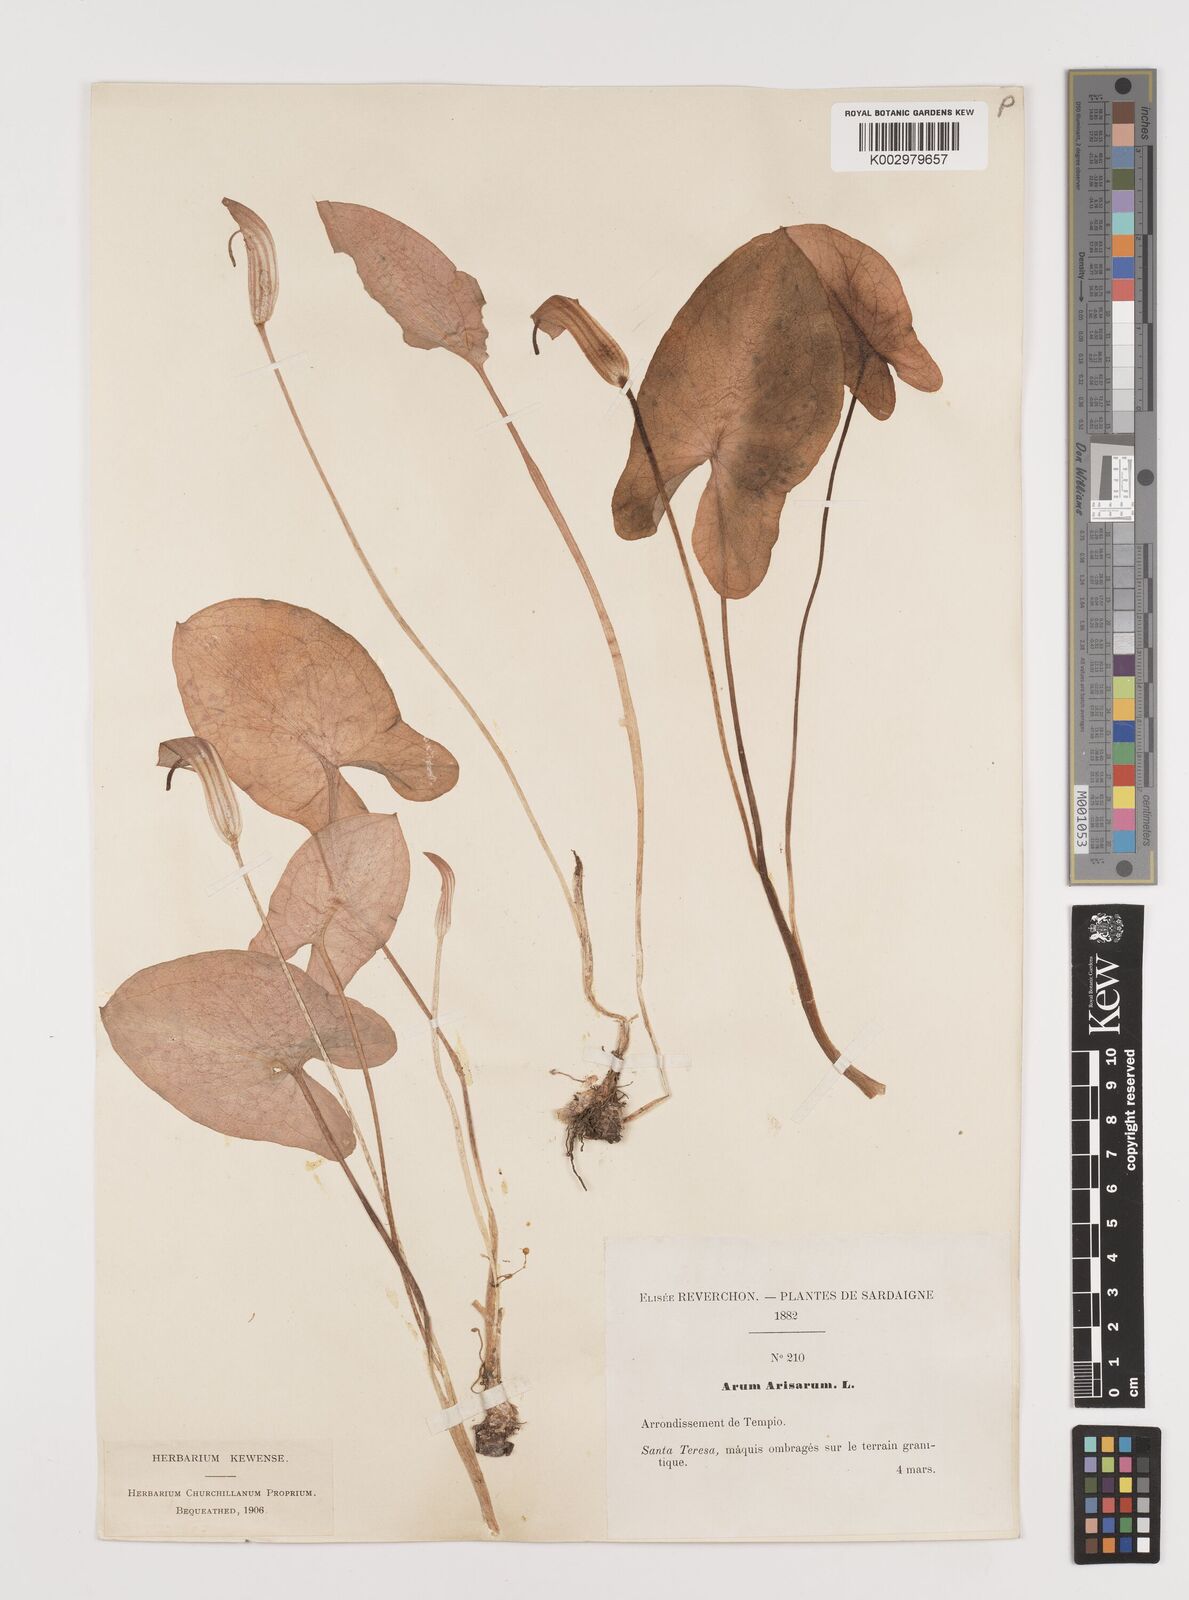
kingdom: Plantae
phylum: Tracheophyta
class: Liliopsida
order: Alismatales
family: Araceae
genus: Arisarum
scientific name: Arisarum vulgare
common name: Common arisarum
